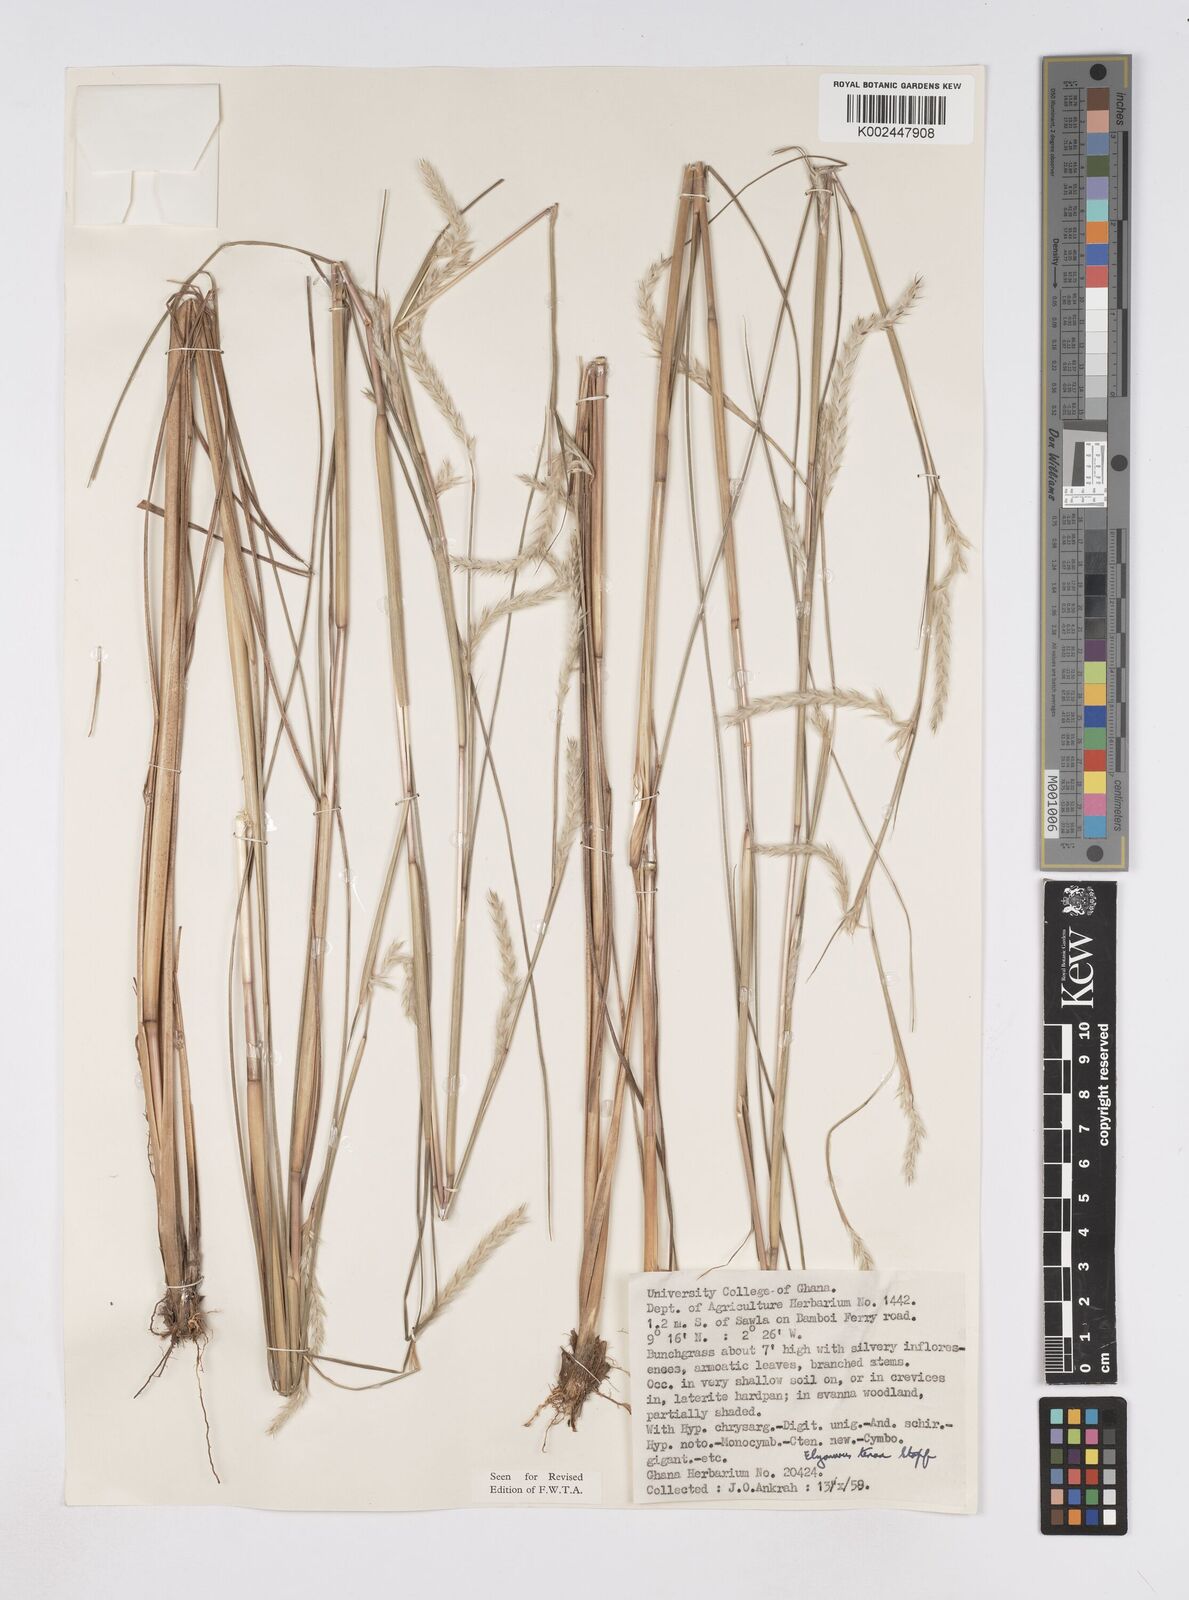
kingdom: Plantae
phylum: Tracheophyta
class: Liliopsida
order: Poales
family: Poaceae
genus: Elionurus
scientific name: Elionurus
